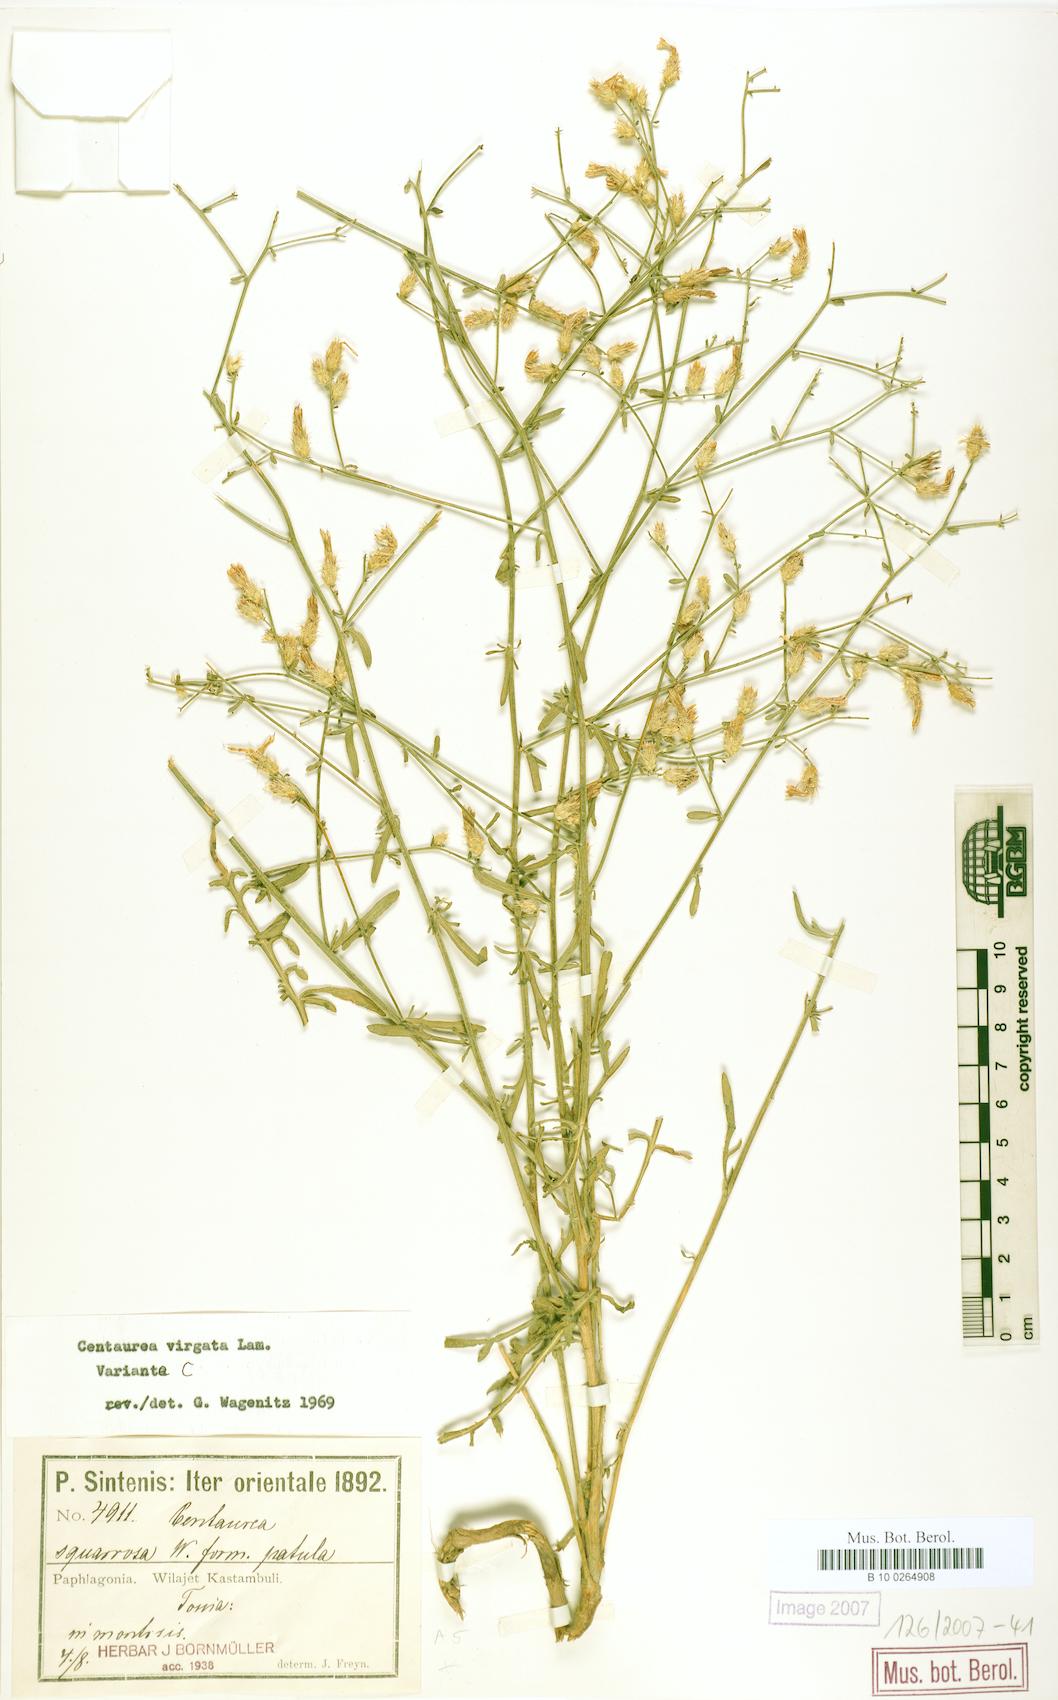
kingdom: Plantae
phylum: Tracheophyta
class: Magnoliopsida
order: Asterales
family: Asteraceae
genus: Centaurea
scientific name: Centaurea virgata
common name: Squarrose knapweed
